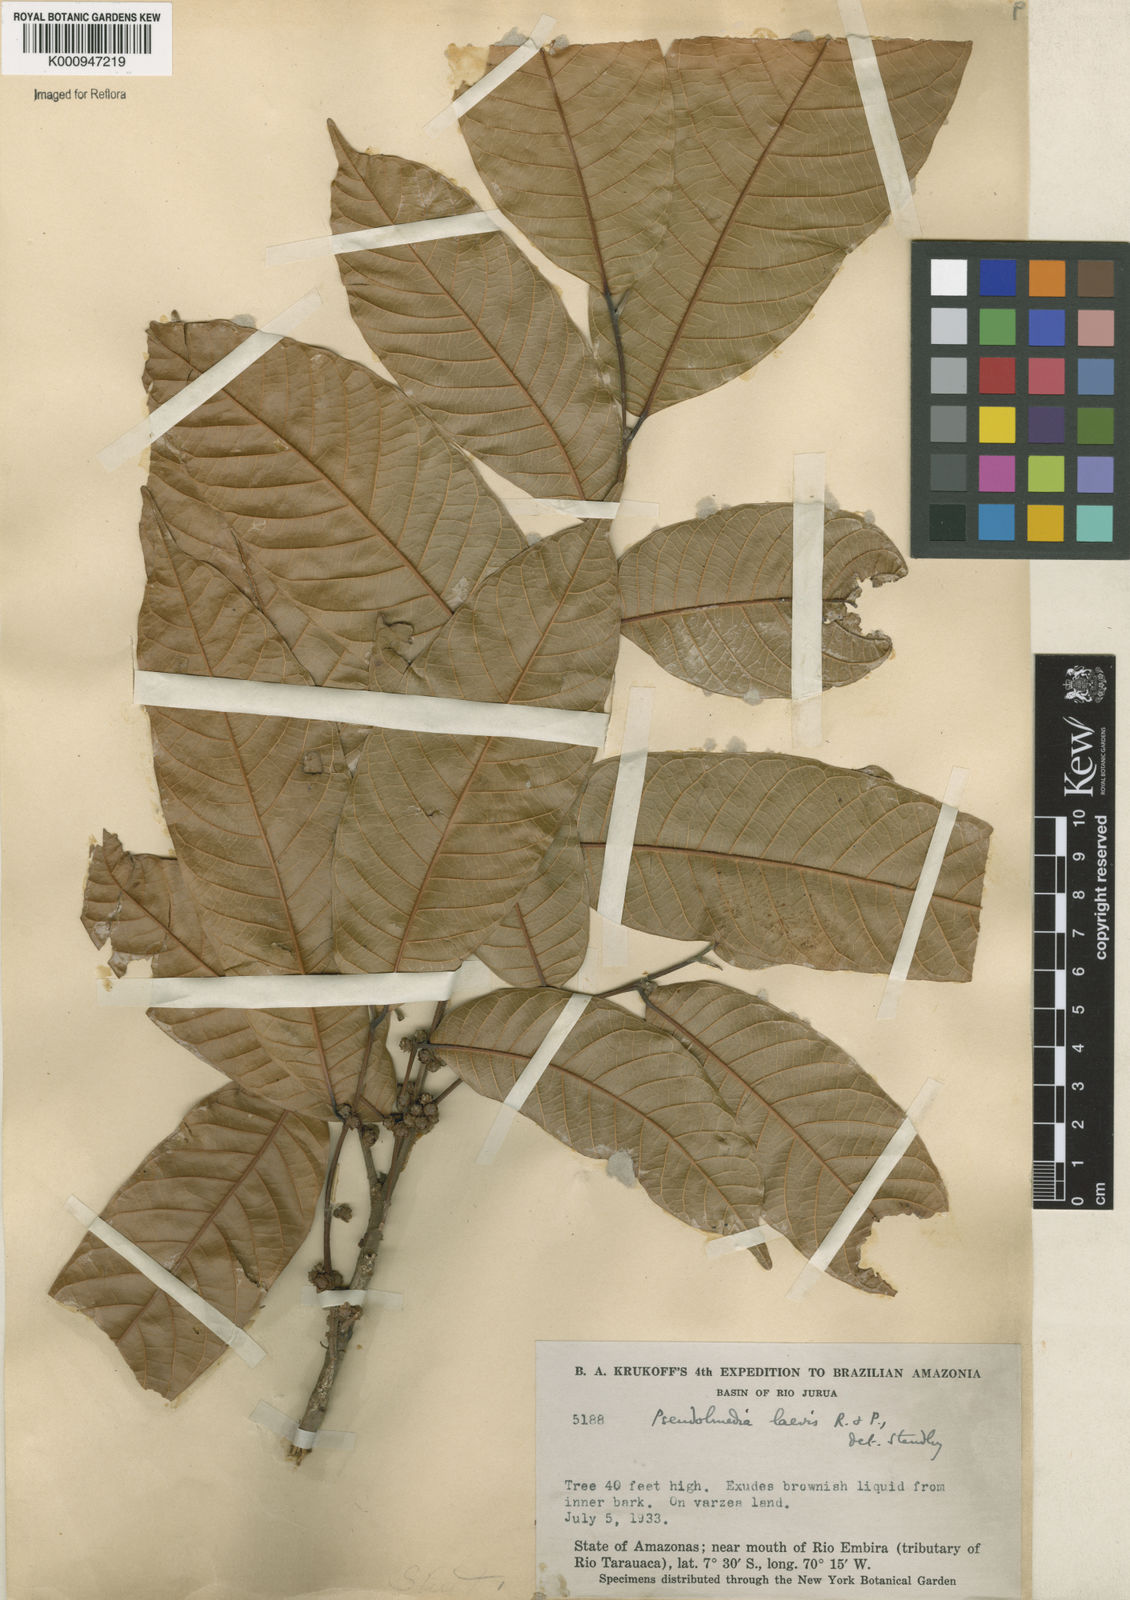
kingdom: Plantae
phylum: Tracheophyta
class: Magnoliopsida
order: Rosales
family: Moraceae
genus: Pseudolmedia
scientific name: Pseudolmedia laevis
